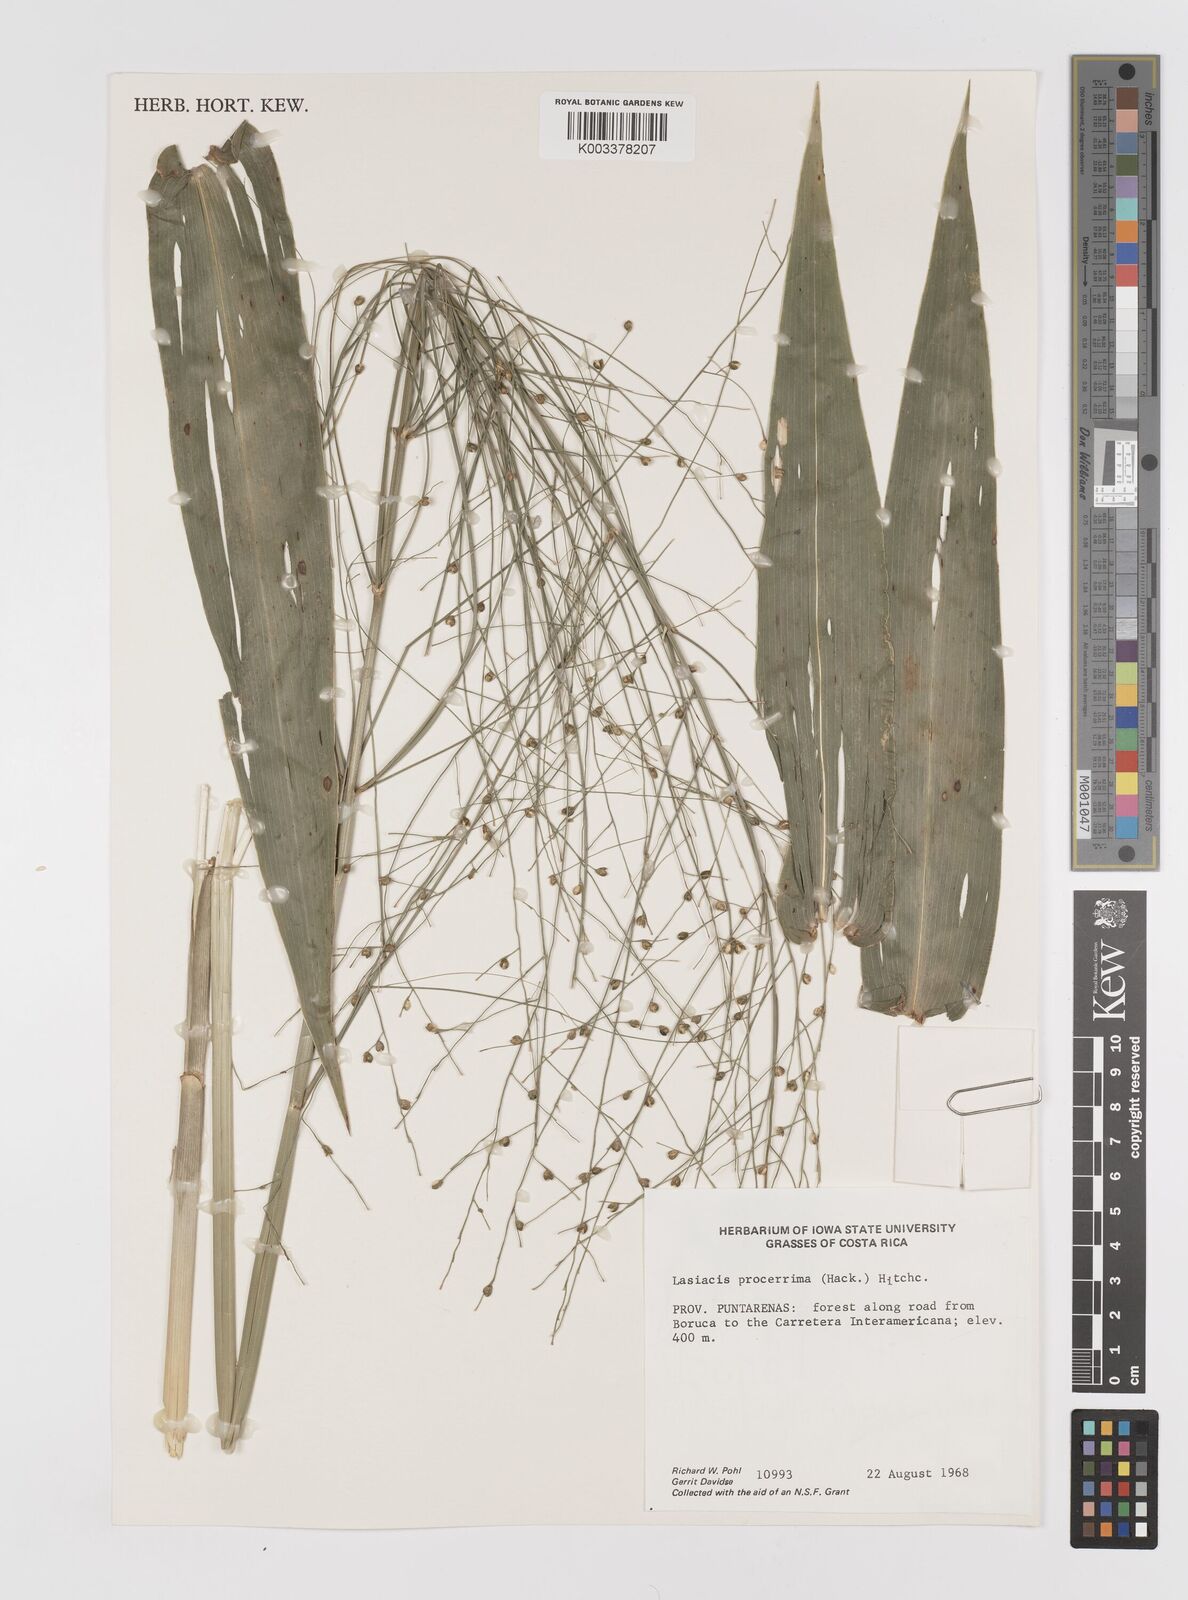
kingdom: Plantae
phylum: Tracheophyta
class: Liliopsida
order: Poales
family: Poaceae
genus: Lasiacis
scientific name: Lasiacis procerrima
